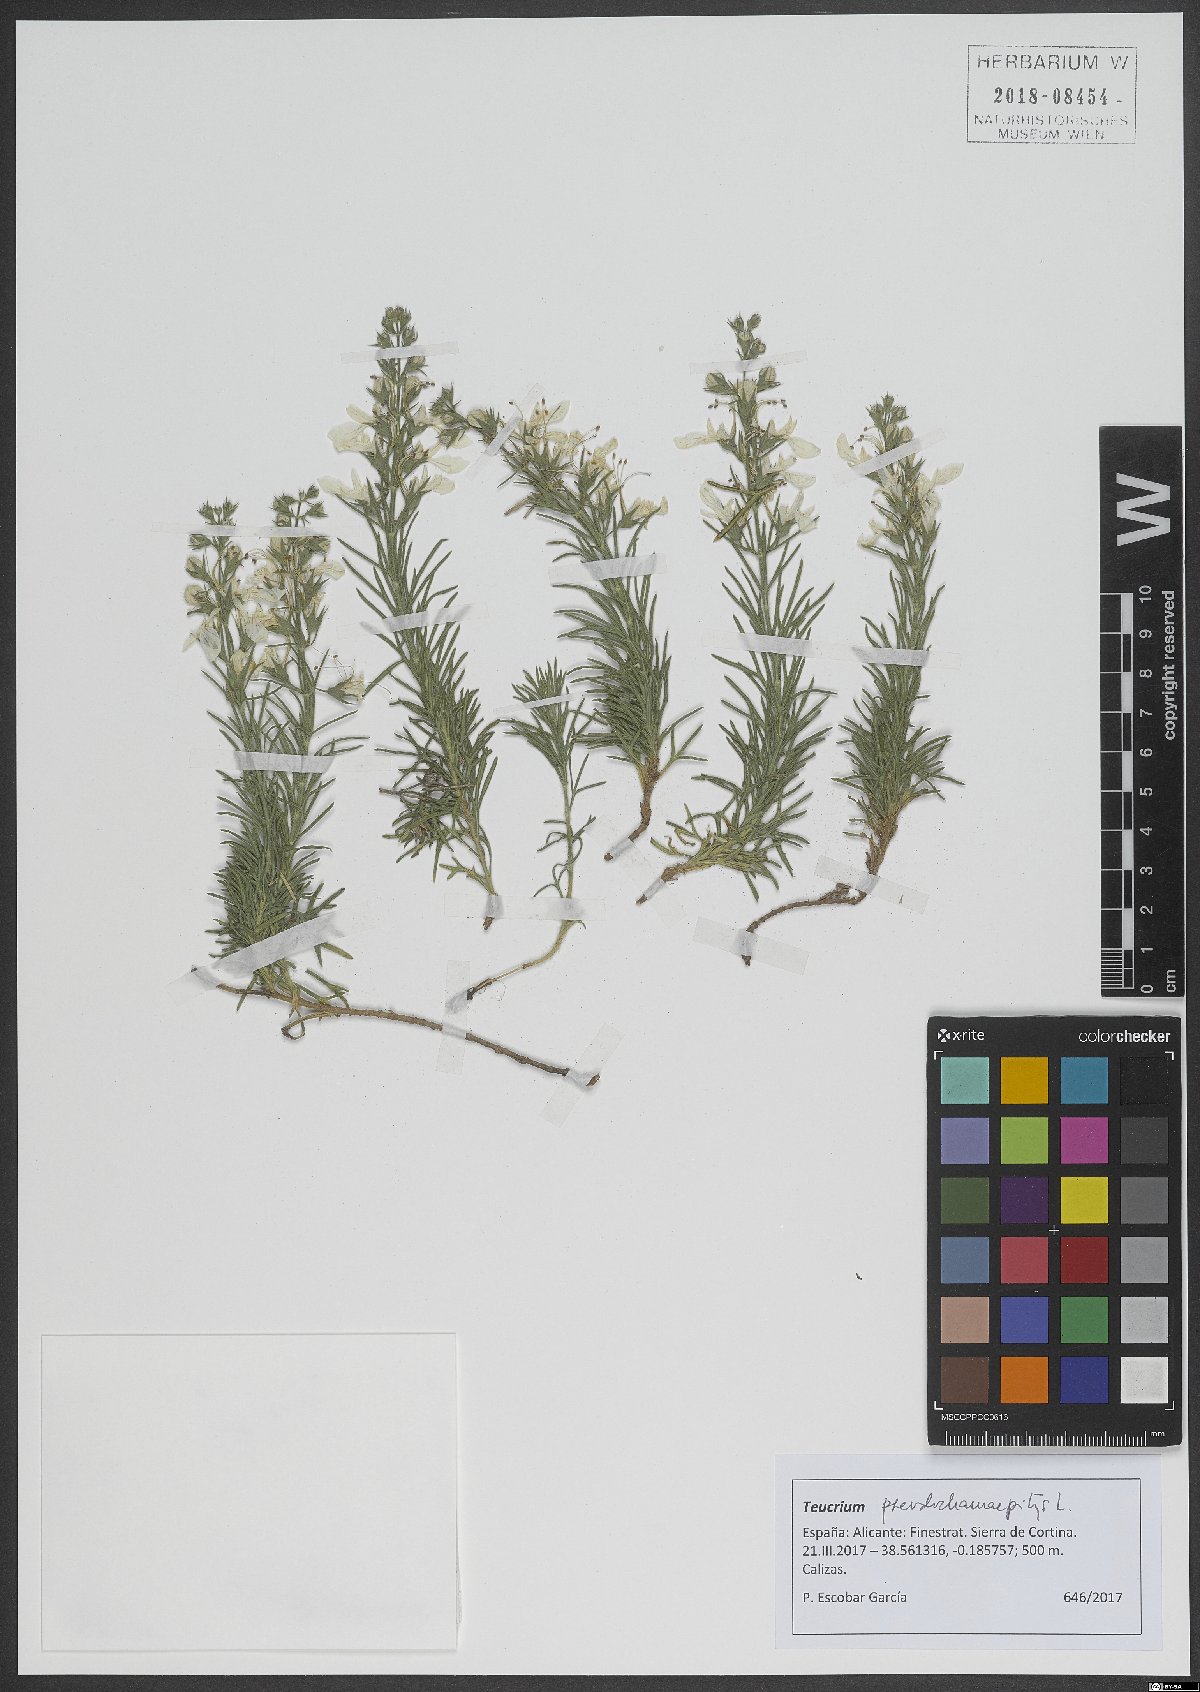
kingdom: Plantae
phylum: Tracheophyta
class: Magnoliopsida
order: Lamiales
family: Lamiaceae
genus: Teucrium
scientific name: Teucrium pseudochamaepitys
